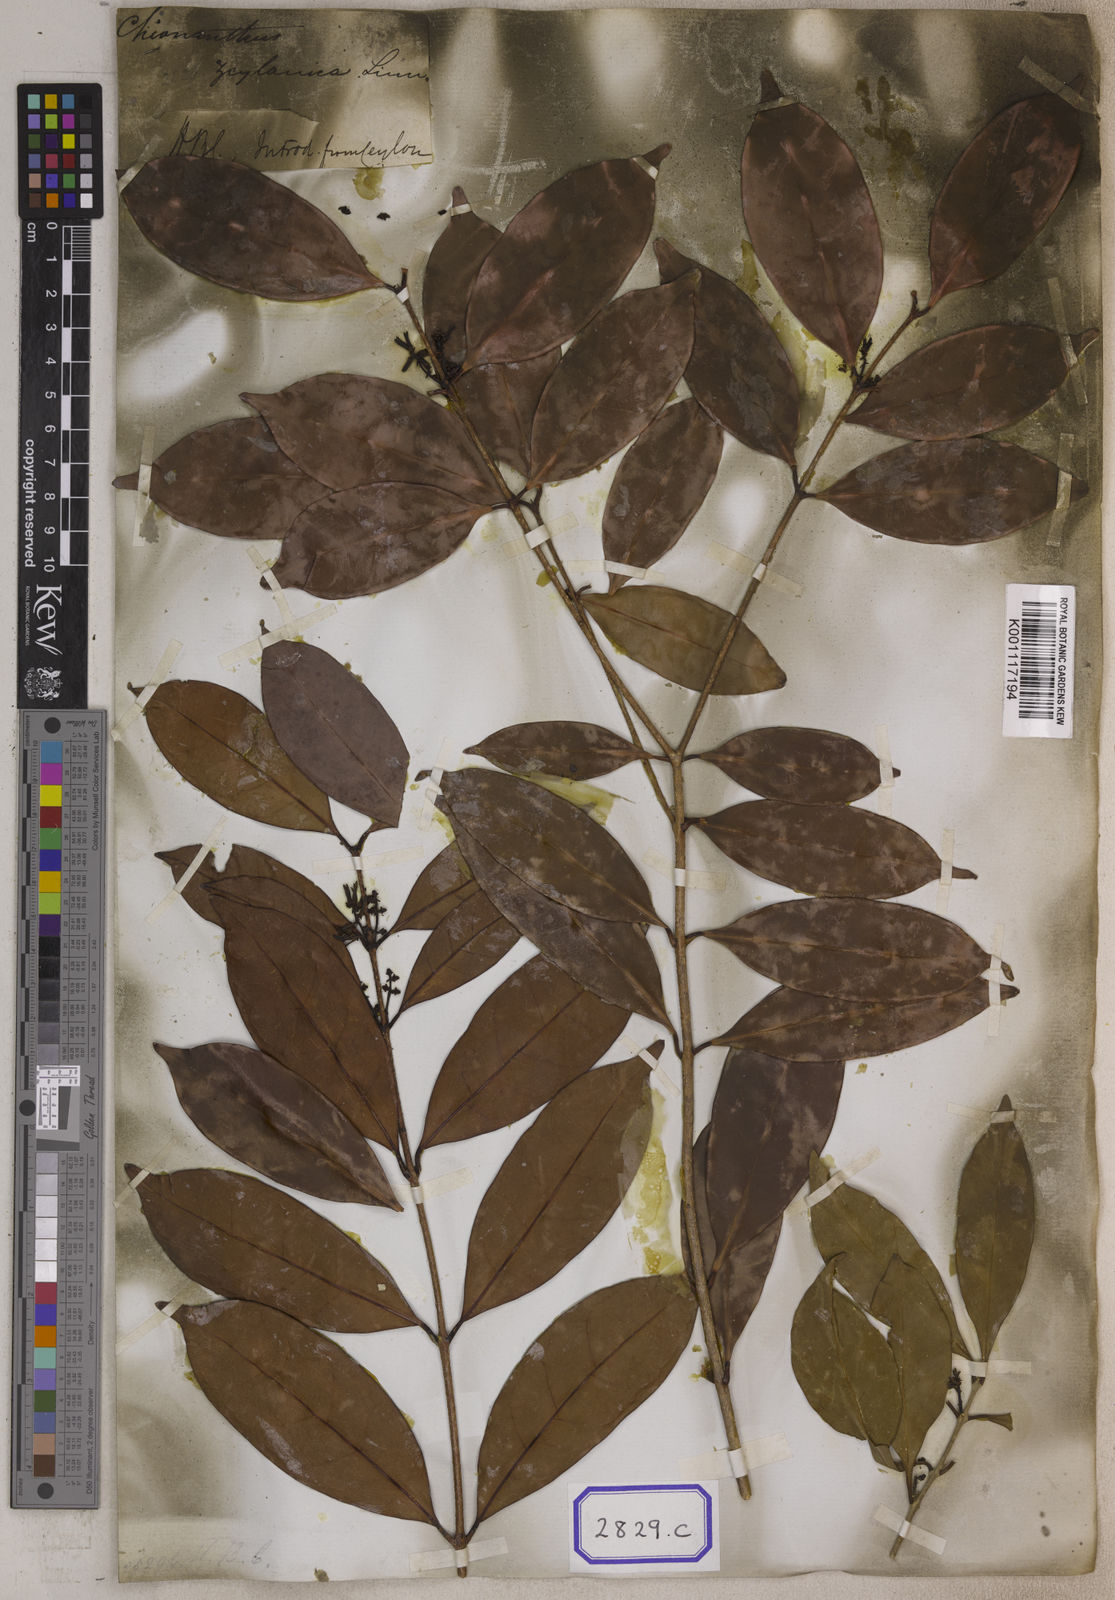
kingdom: Plantae
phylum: Tracheophyta
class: Magnoliopsida
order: Lamiales
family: Oleaceae
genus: Chionanthus
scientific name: Chionanthus purpureus
